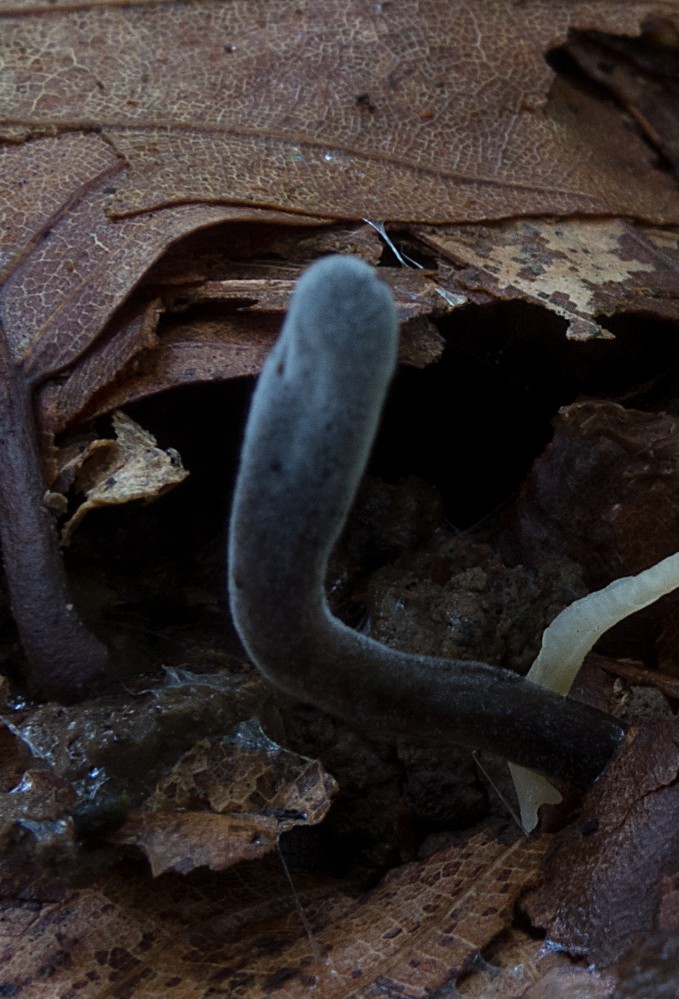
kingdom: Fungi
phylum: Ascomycota
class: Sordariomycetes
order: Hypocreales
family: Hypocreaceae
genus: Hypomyces
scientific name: Hypomyces papulasporae
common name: jordtunge-snylteskorpe
